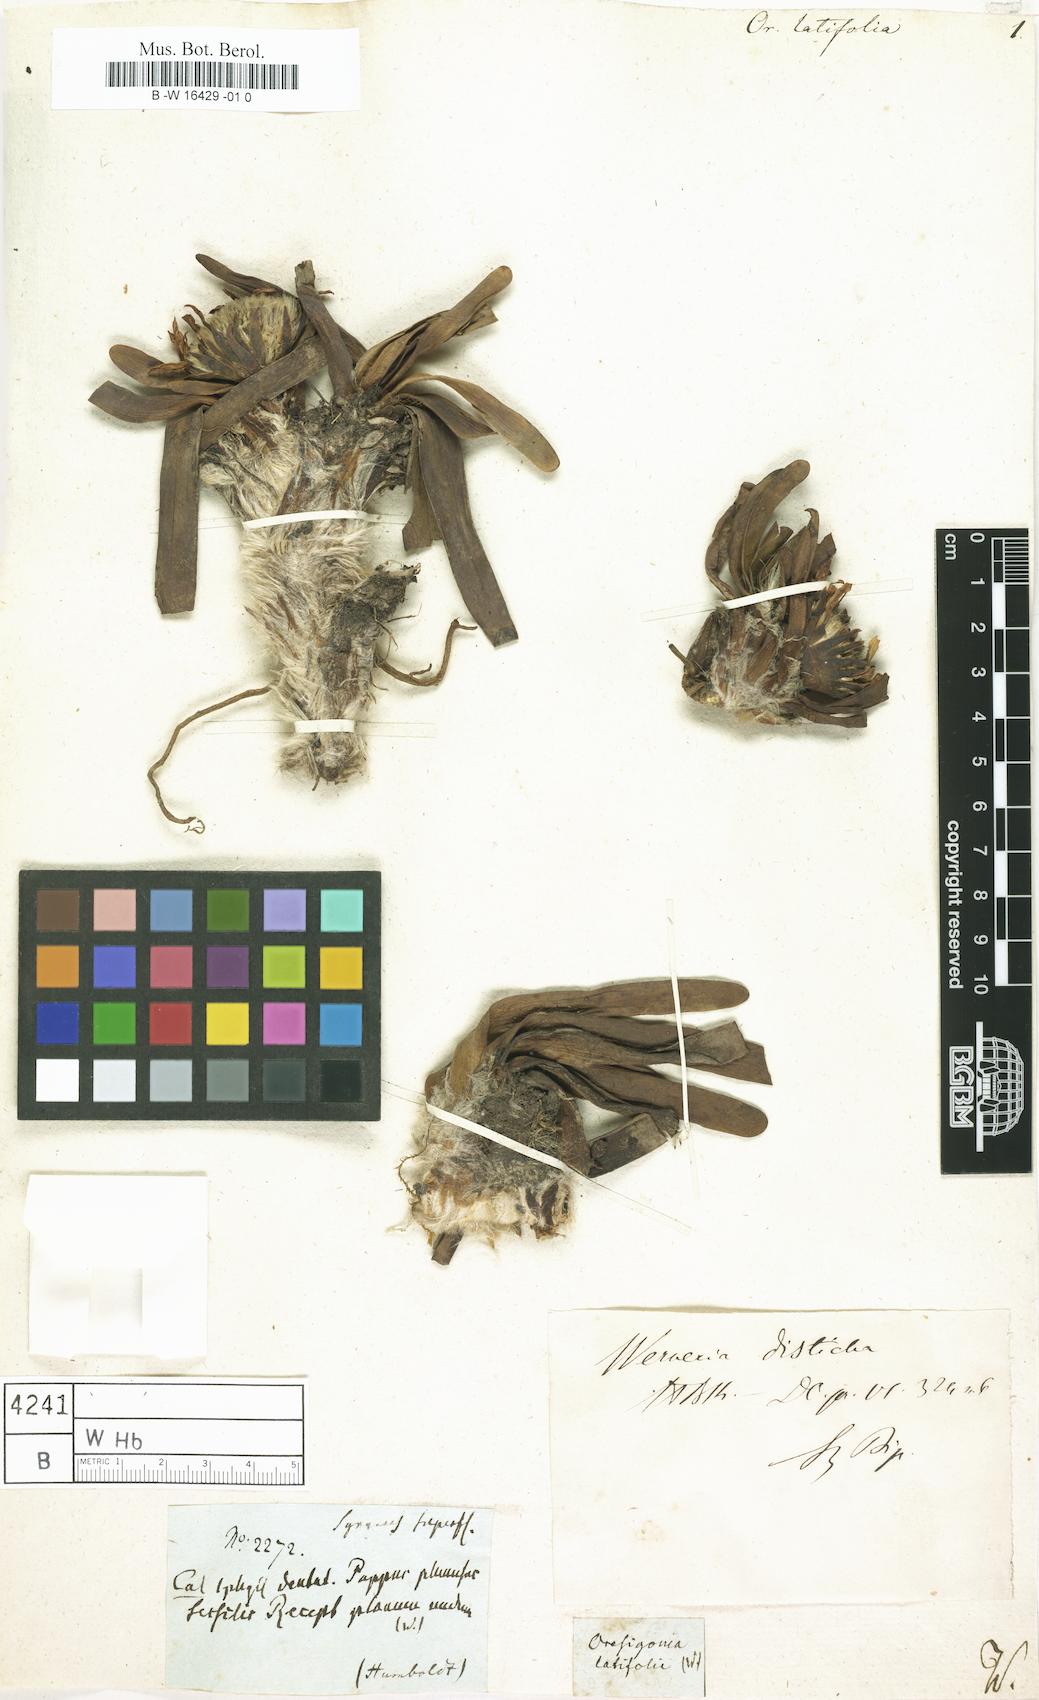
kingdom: Plantae
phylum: Tracheophyta
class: Magnoliopsida
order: Asterales
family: Asteraceae
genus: Rockhausenia
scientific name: Rockhausenia nubigena
